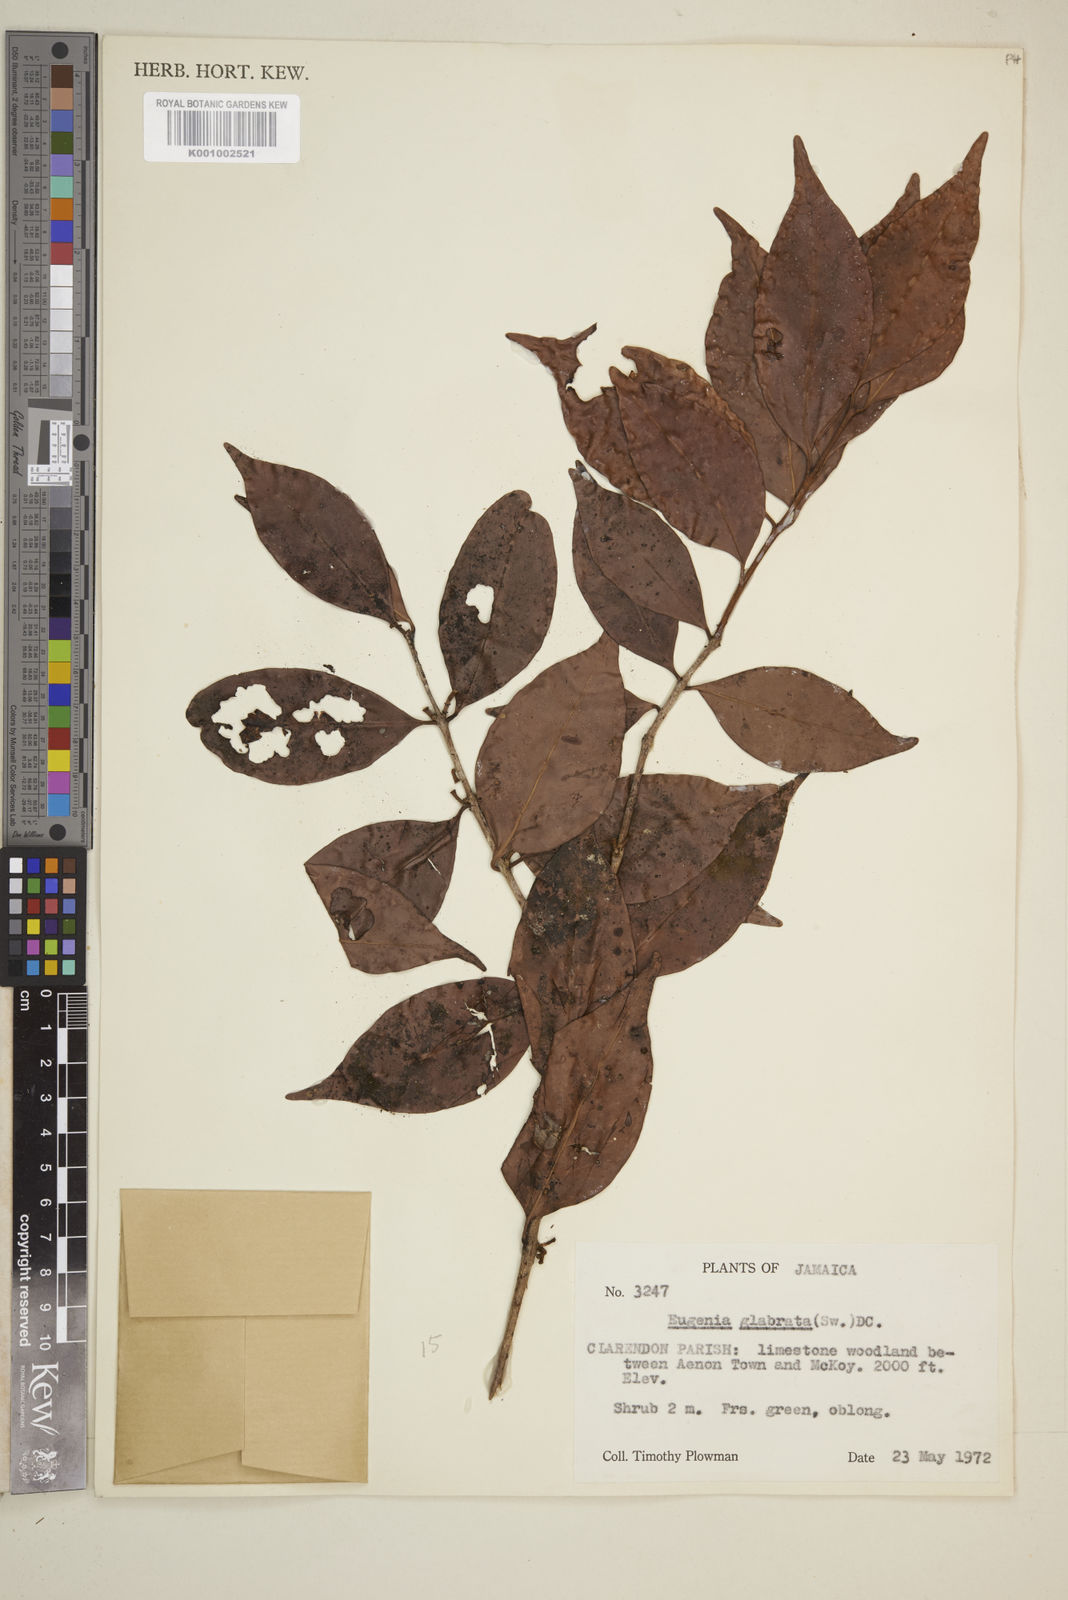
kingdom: Plantae
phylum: Tracheophyta
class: Magnoliopsida
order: Myrtales
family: Myrtaceae
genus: Eugenia
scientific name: Eugenia glabrata
